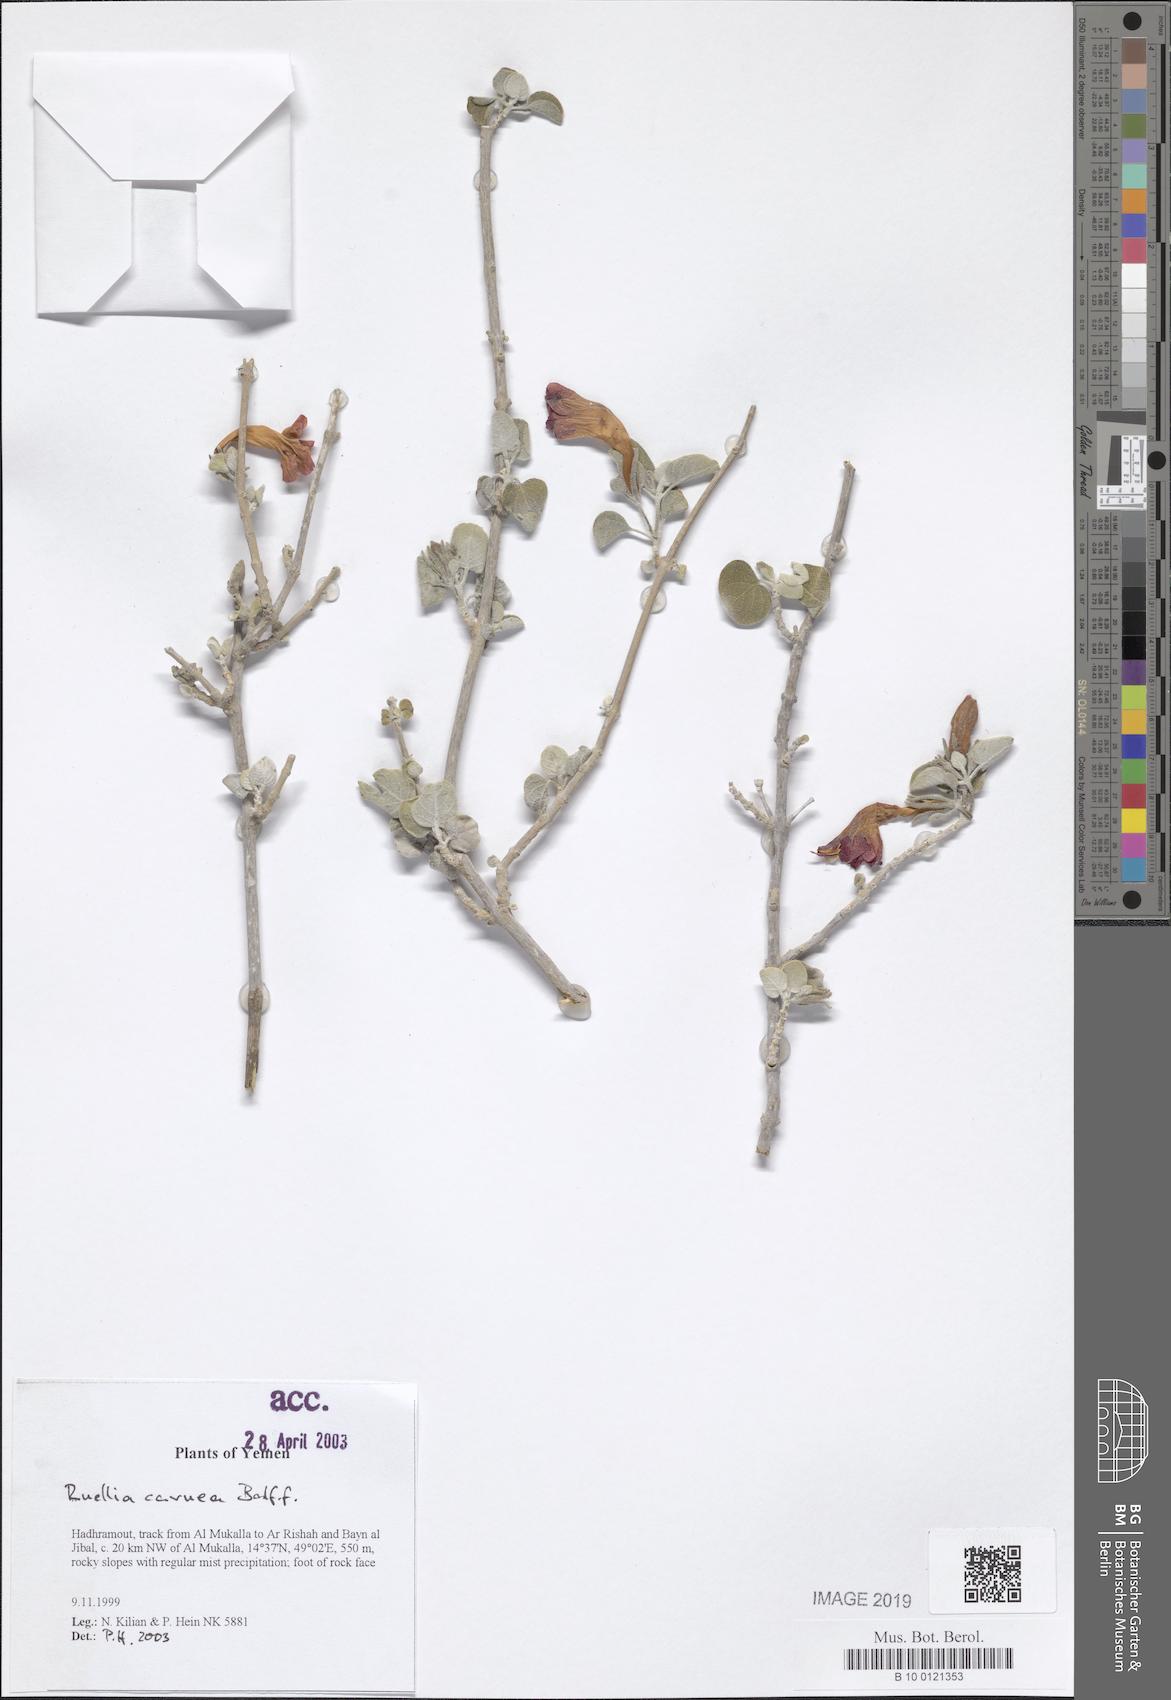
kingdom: Plantae
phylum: Tracheophyta
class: Magnoliopsida
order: Lamiales
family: Acanthaceae
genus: Ruellia
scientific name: Ruellia carnea
